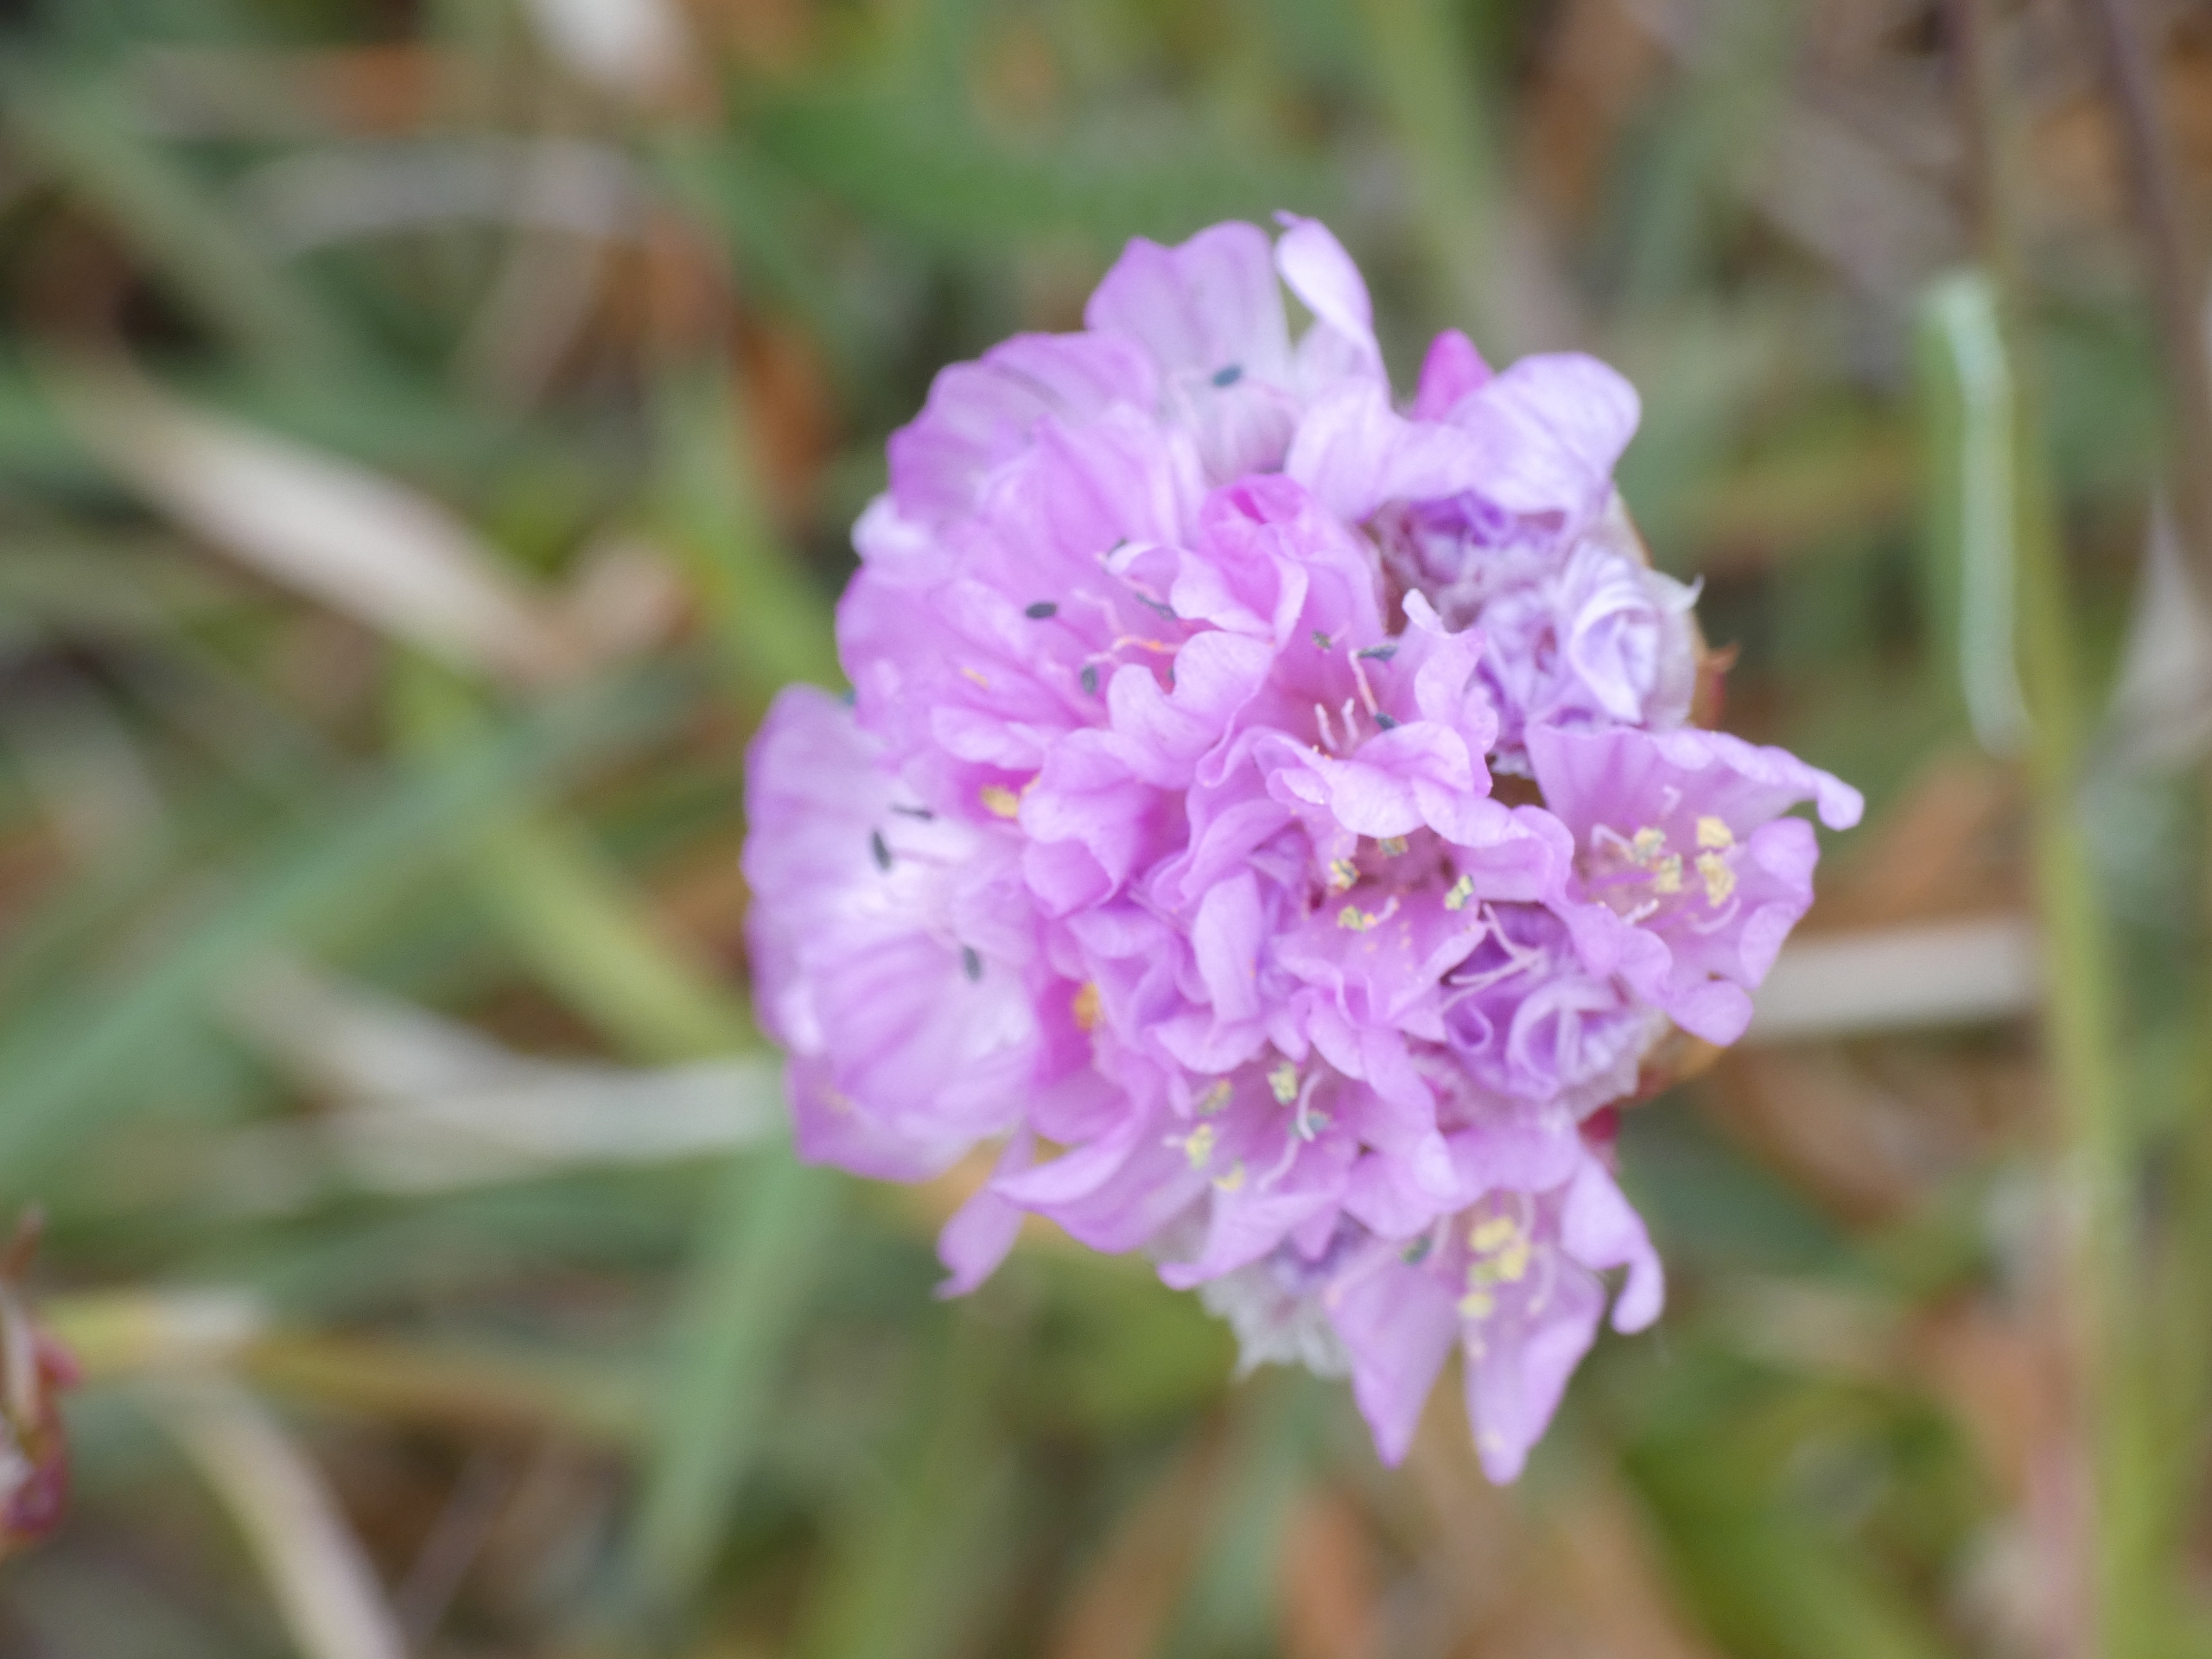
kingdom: Plantae
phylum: Tracheophyta
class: Magnoliopsida
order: Caryophyllales
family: Plumbaginaceae
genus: Armeria
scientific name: Armeria maritima
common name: Engelskgræs
